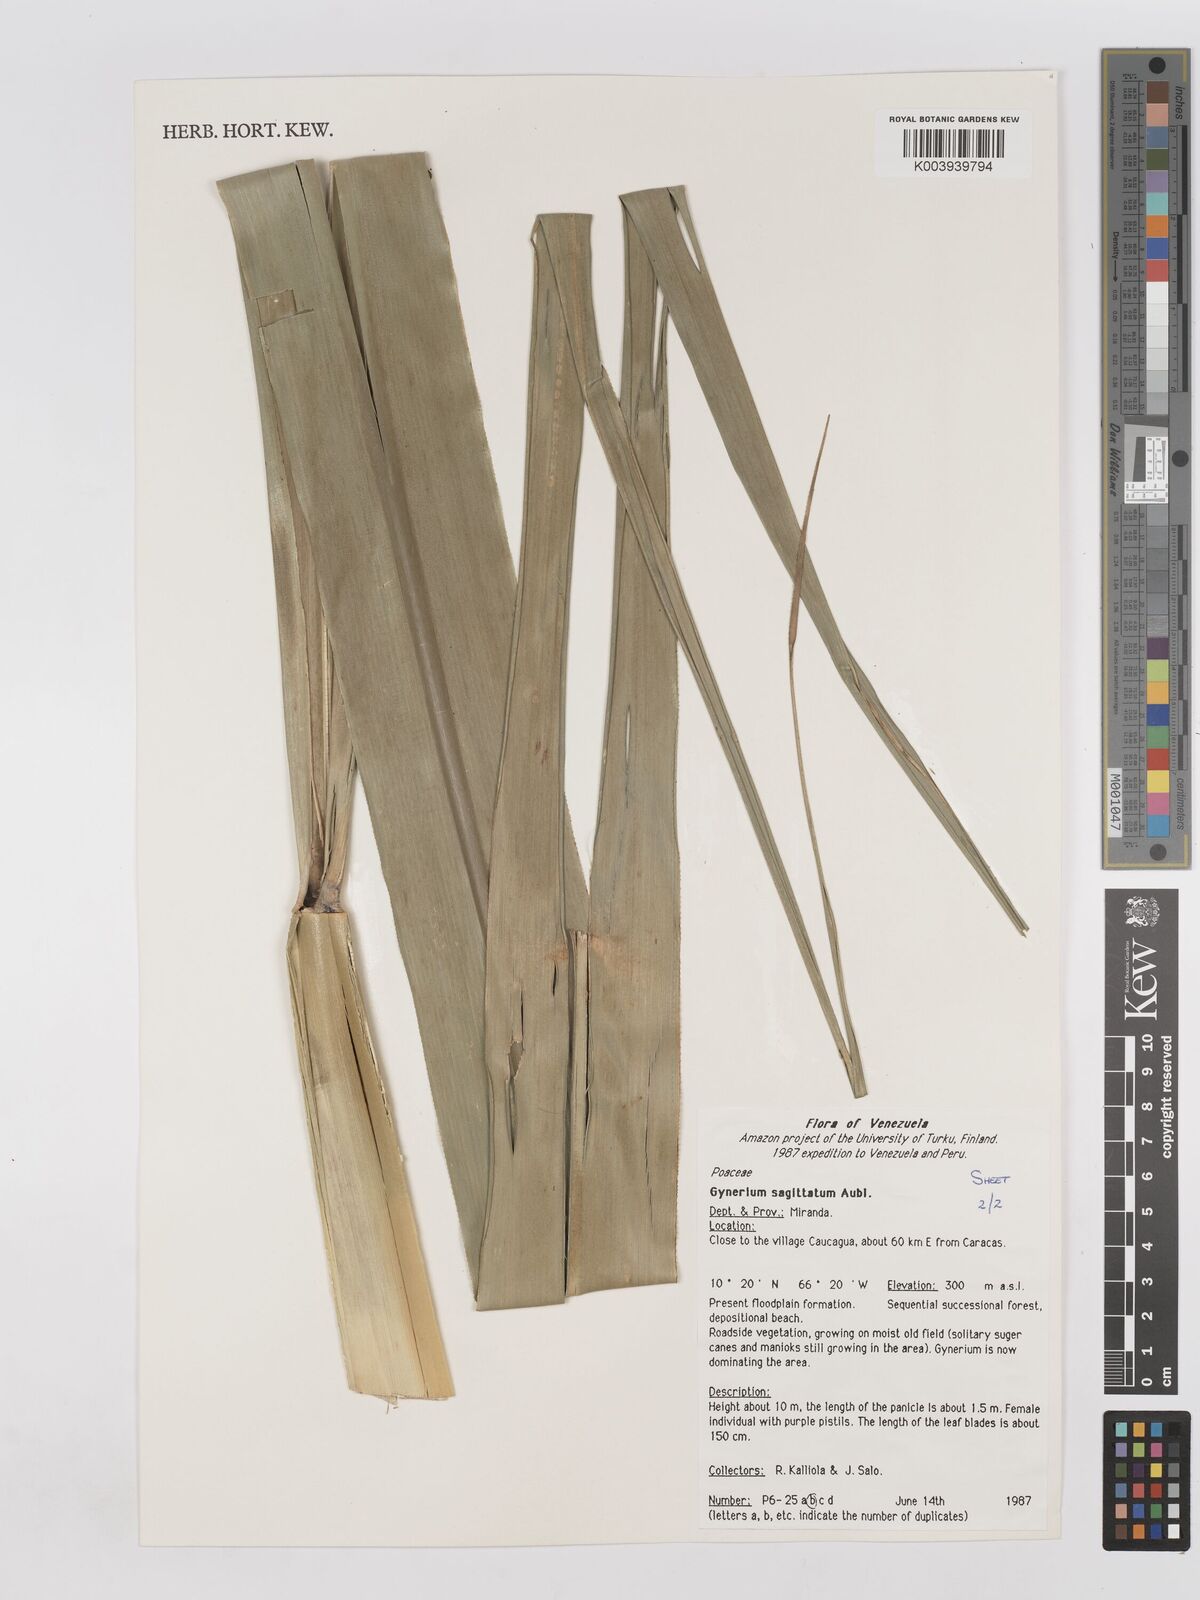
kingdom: Plantae
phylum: Tracheophyta
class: Liliopsida
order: Poales
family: Poaceae
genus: Gynerium
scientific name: Gynerium sagittatum
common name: Wild cane
